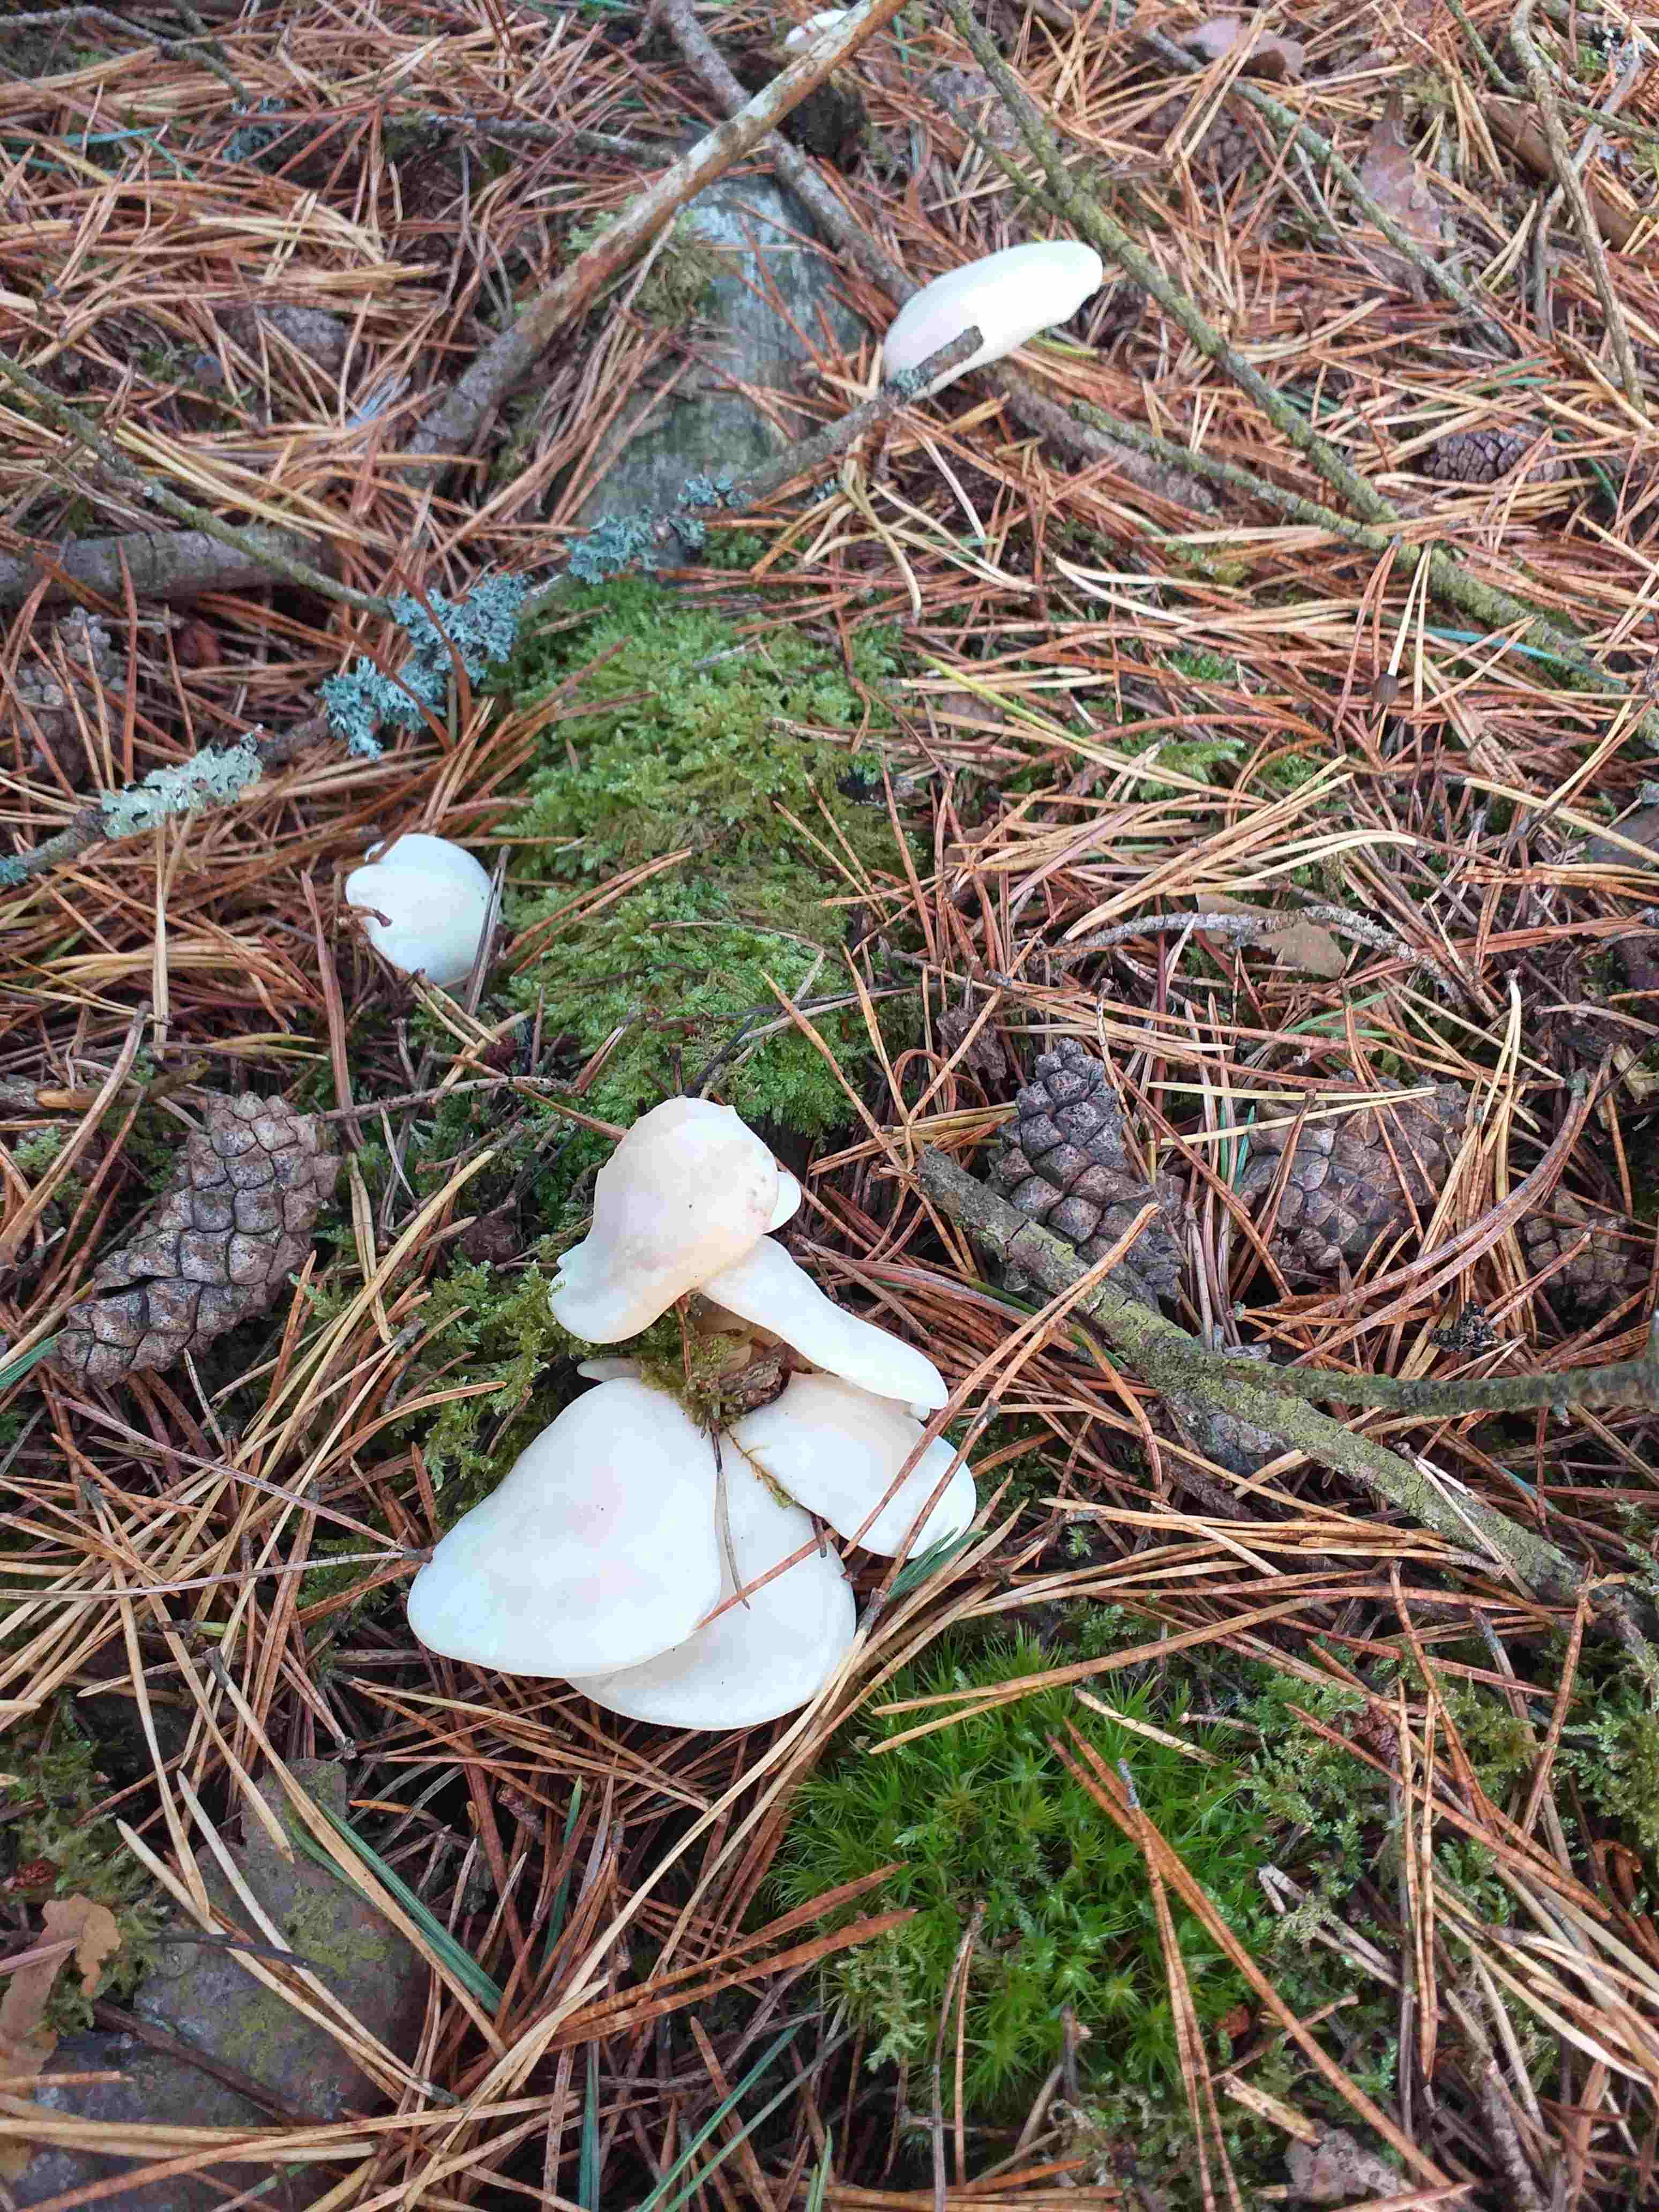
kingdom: Fungi
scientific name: Fungi
